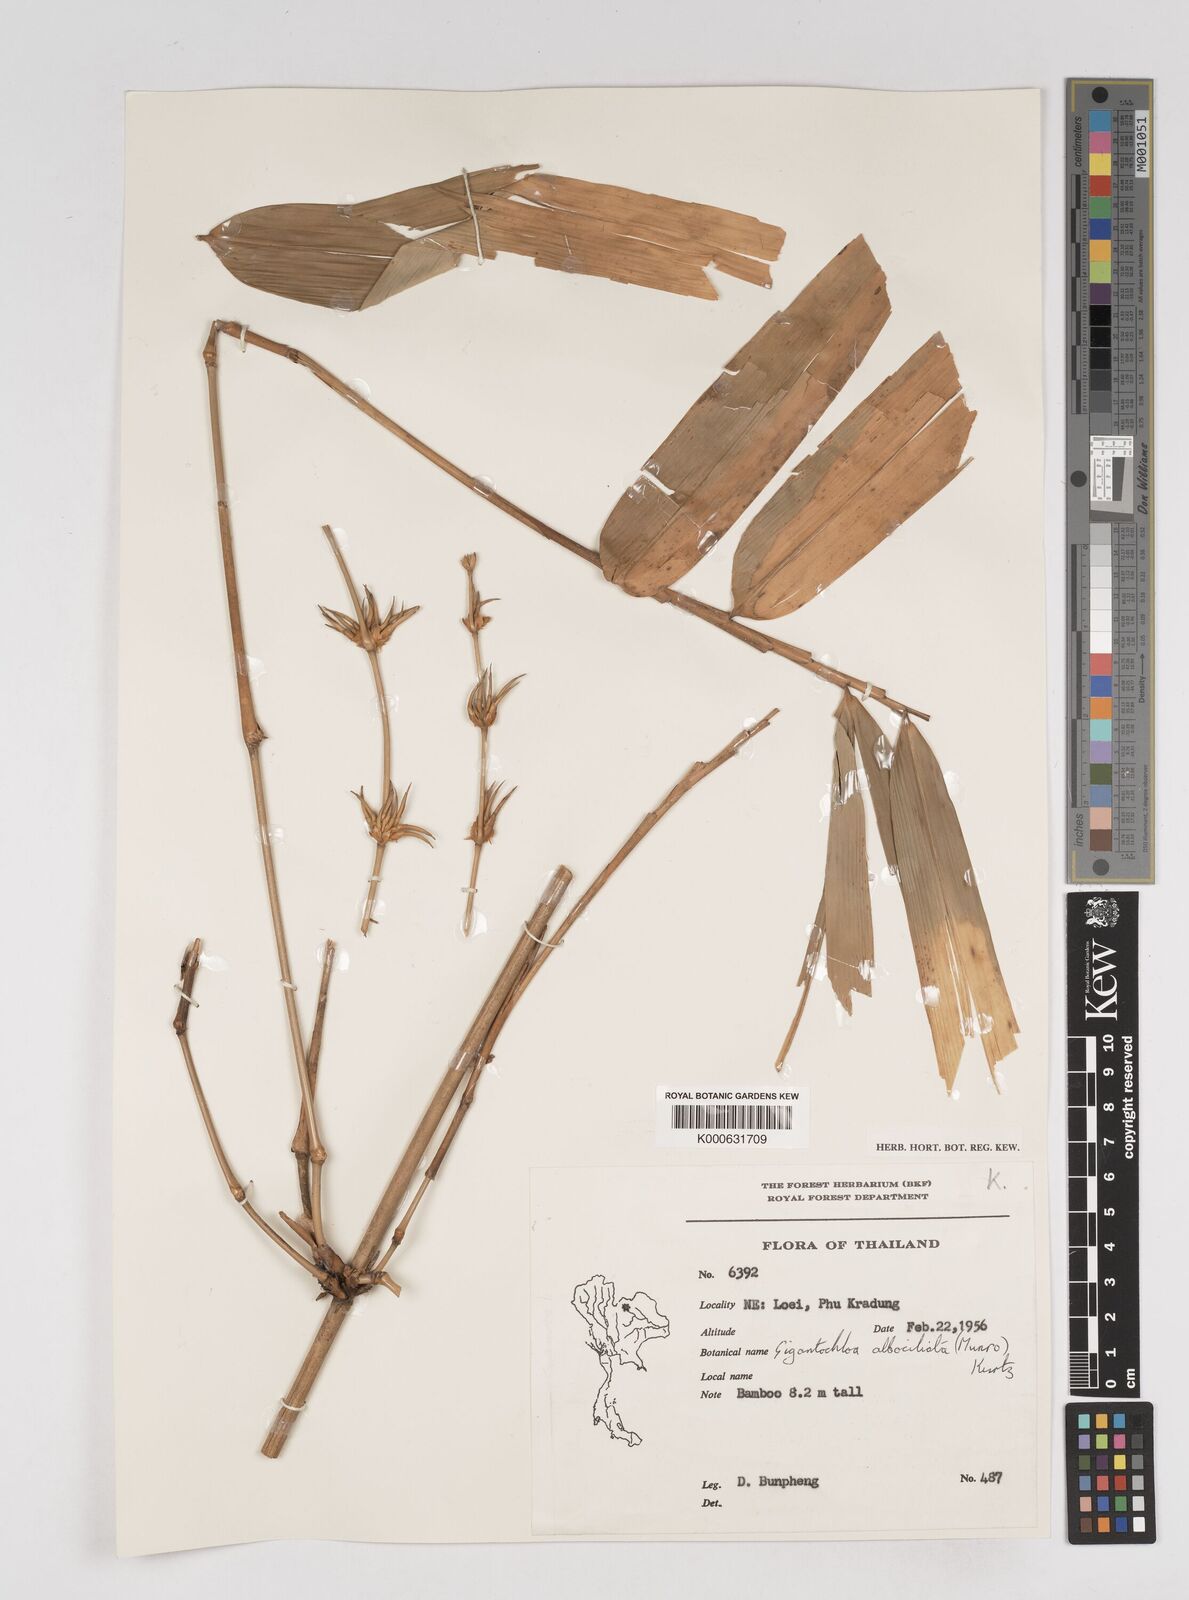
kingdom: Plantae
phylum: Tracheophyta
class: Liliopsida
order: Poales
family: Poaceae
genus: Gigantochloa
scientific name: Gigantochloa albociliata
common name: White-fringe gigantochloa
